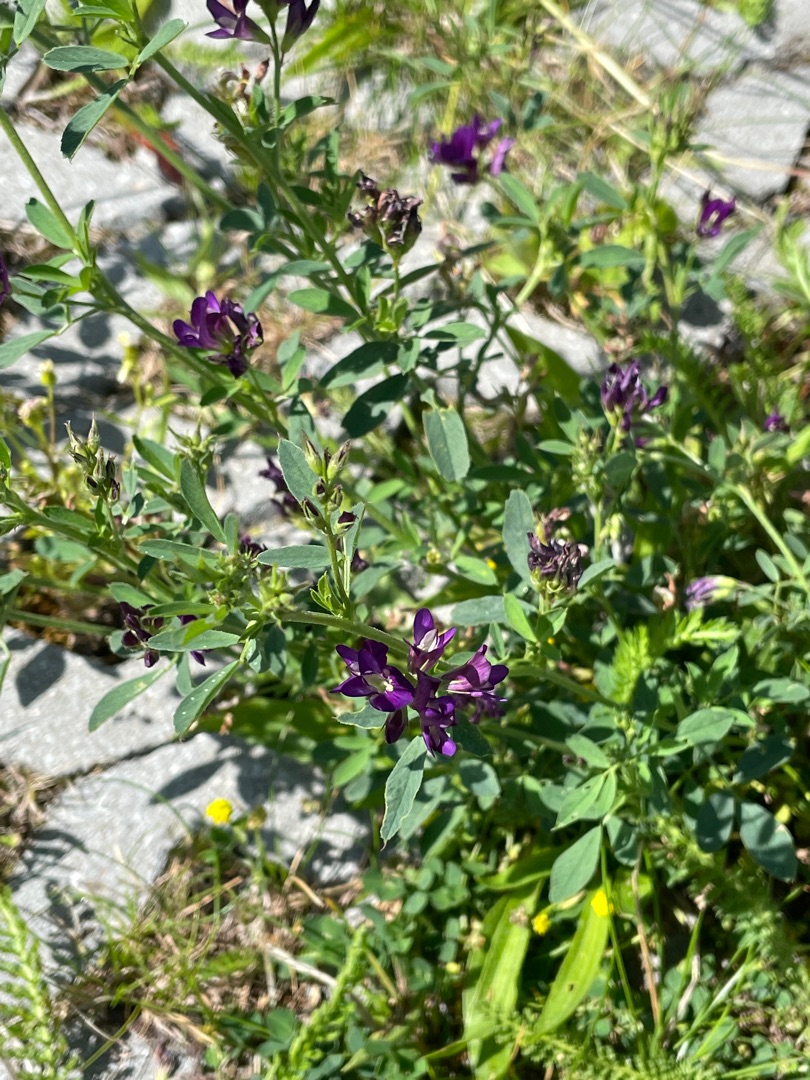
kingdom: Plantae
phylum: Tracheophyta
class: Magnoliopsida
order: Fabales
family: Fabaceae
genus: Medicago
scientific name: Medicago sativa
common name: Lucerne
